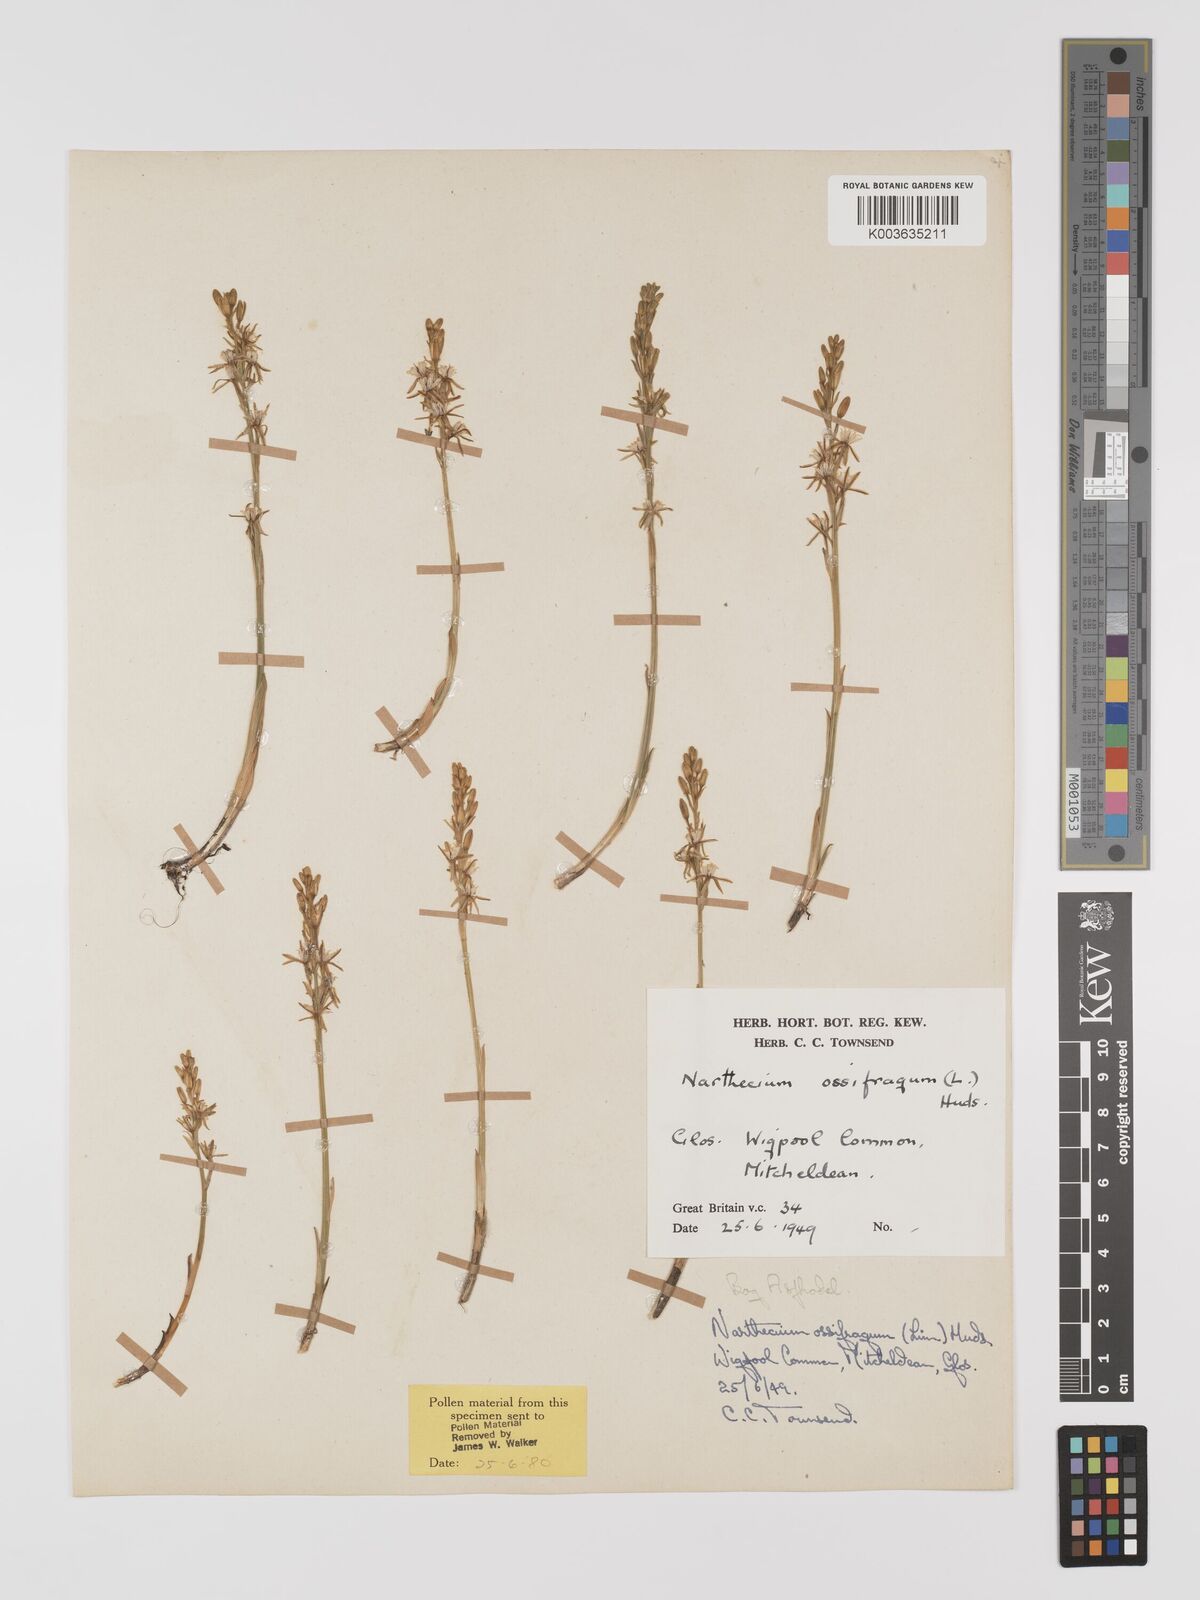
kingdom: Plantae
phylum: Tracheophyta
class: Liliopsida
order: Dioscoreales
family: Nartheciaceae
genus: Narthecium
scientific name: Narthecium
